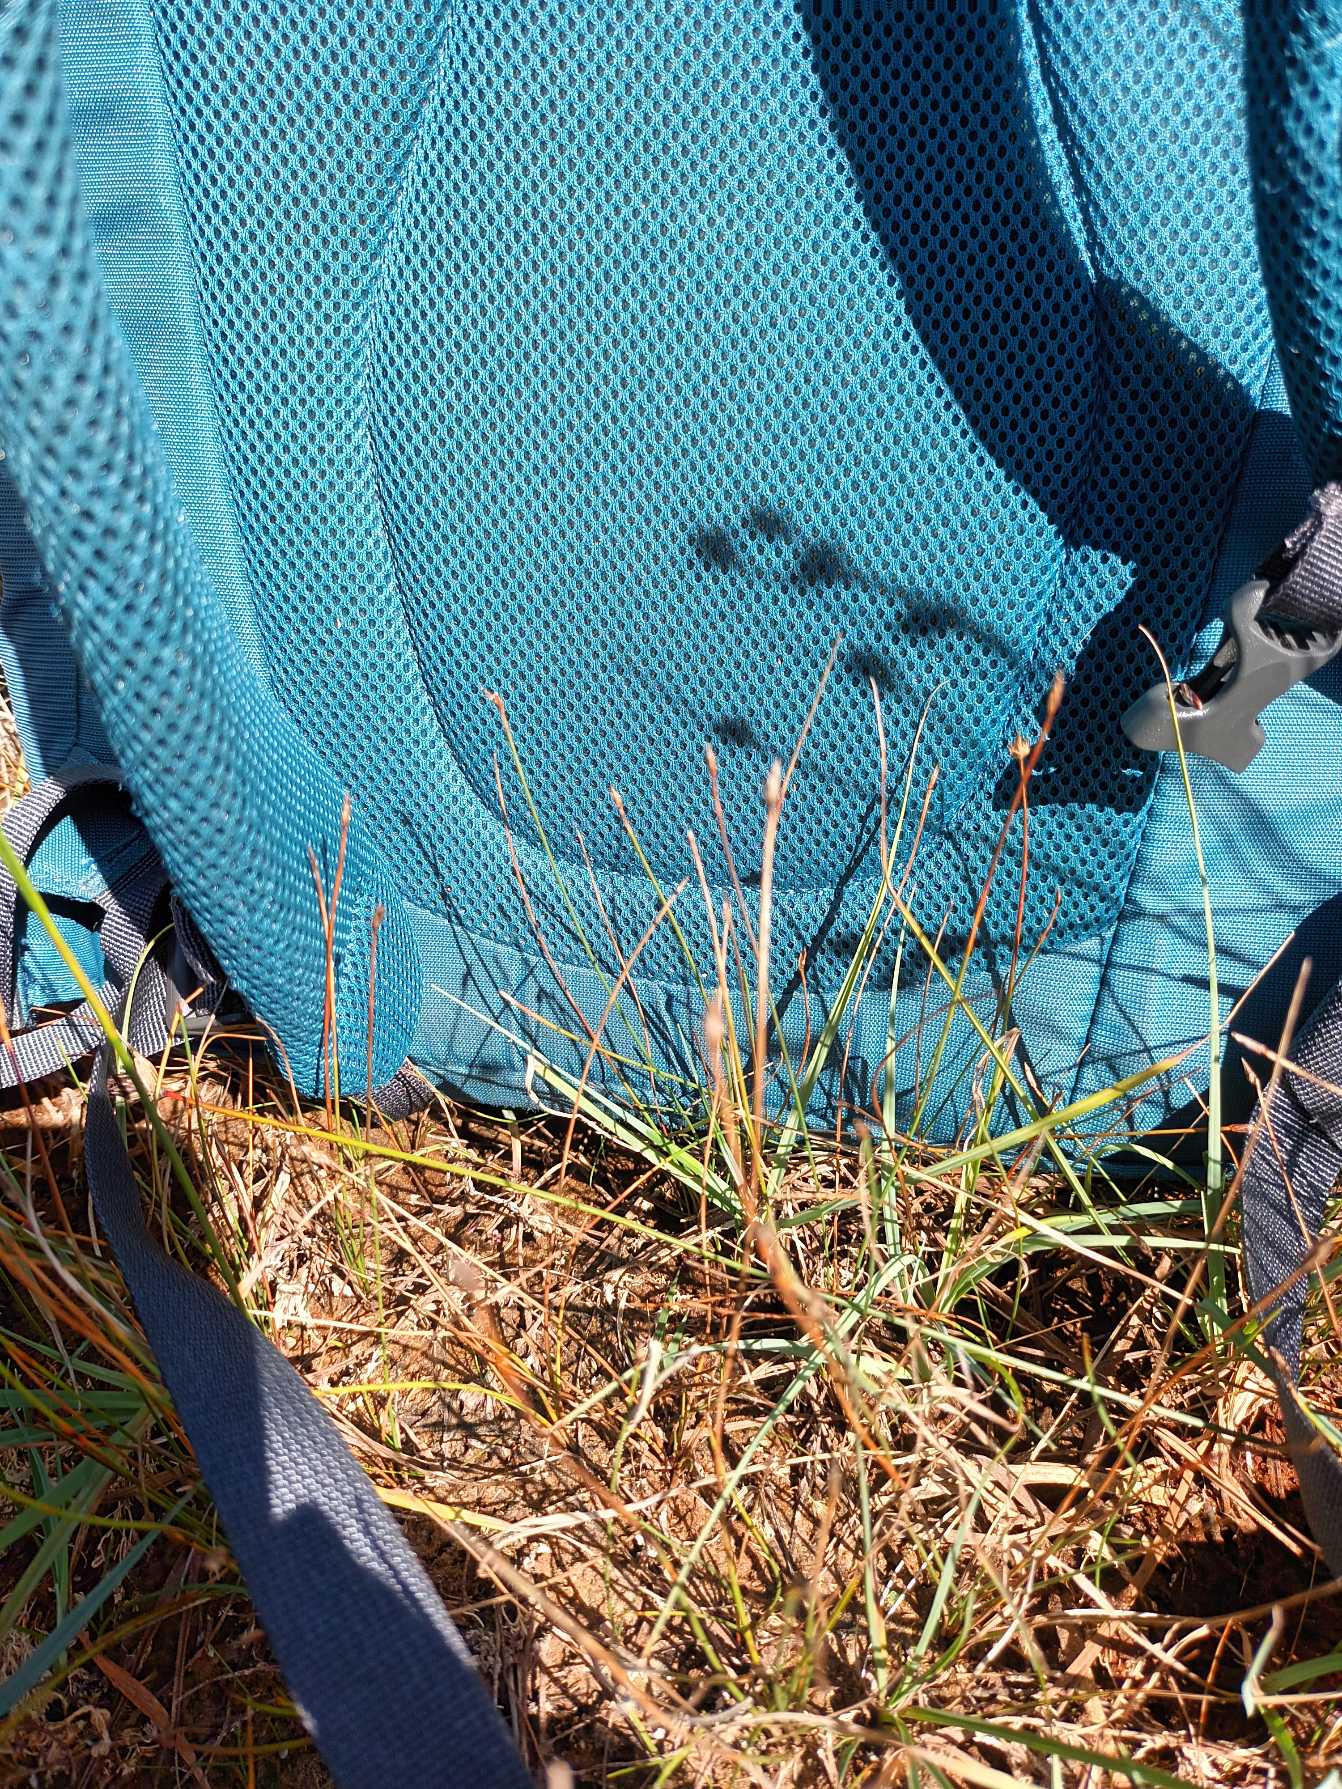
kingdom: Plantae
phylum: Tracheophyta
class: Liliopsida
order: Poales
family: Cyperaceae
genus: Eleocharis
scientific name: Eleocharis quinqueflora
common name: Fåblomstret kogleaks
